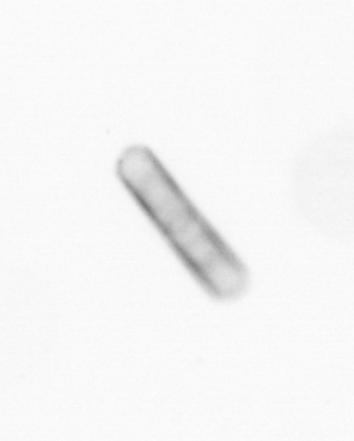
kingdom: Chromista
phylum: Ochrophyta
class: Bacillariophyceae
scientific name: Bacillariophyceae
